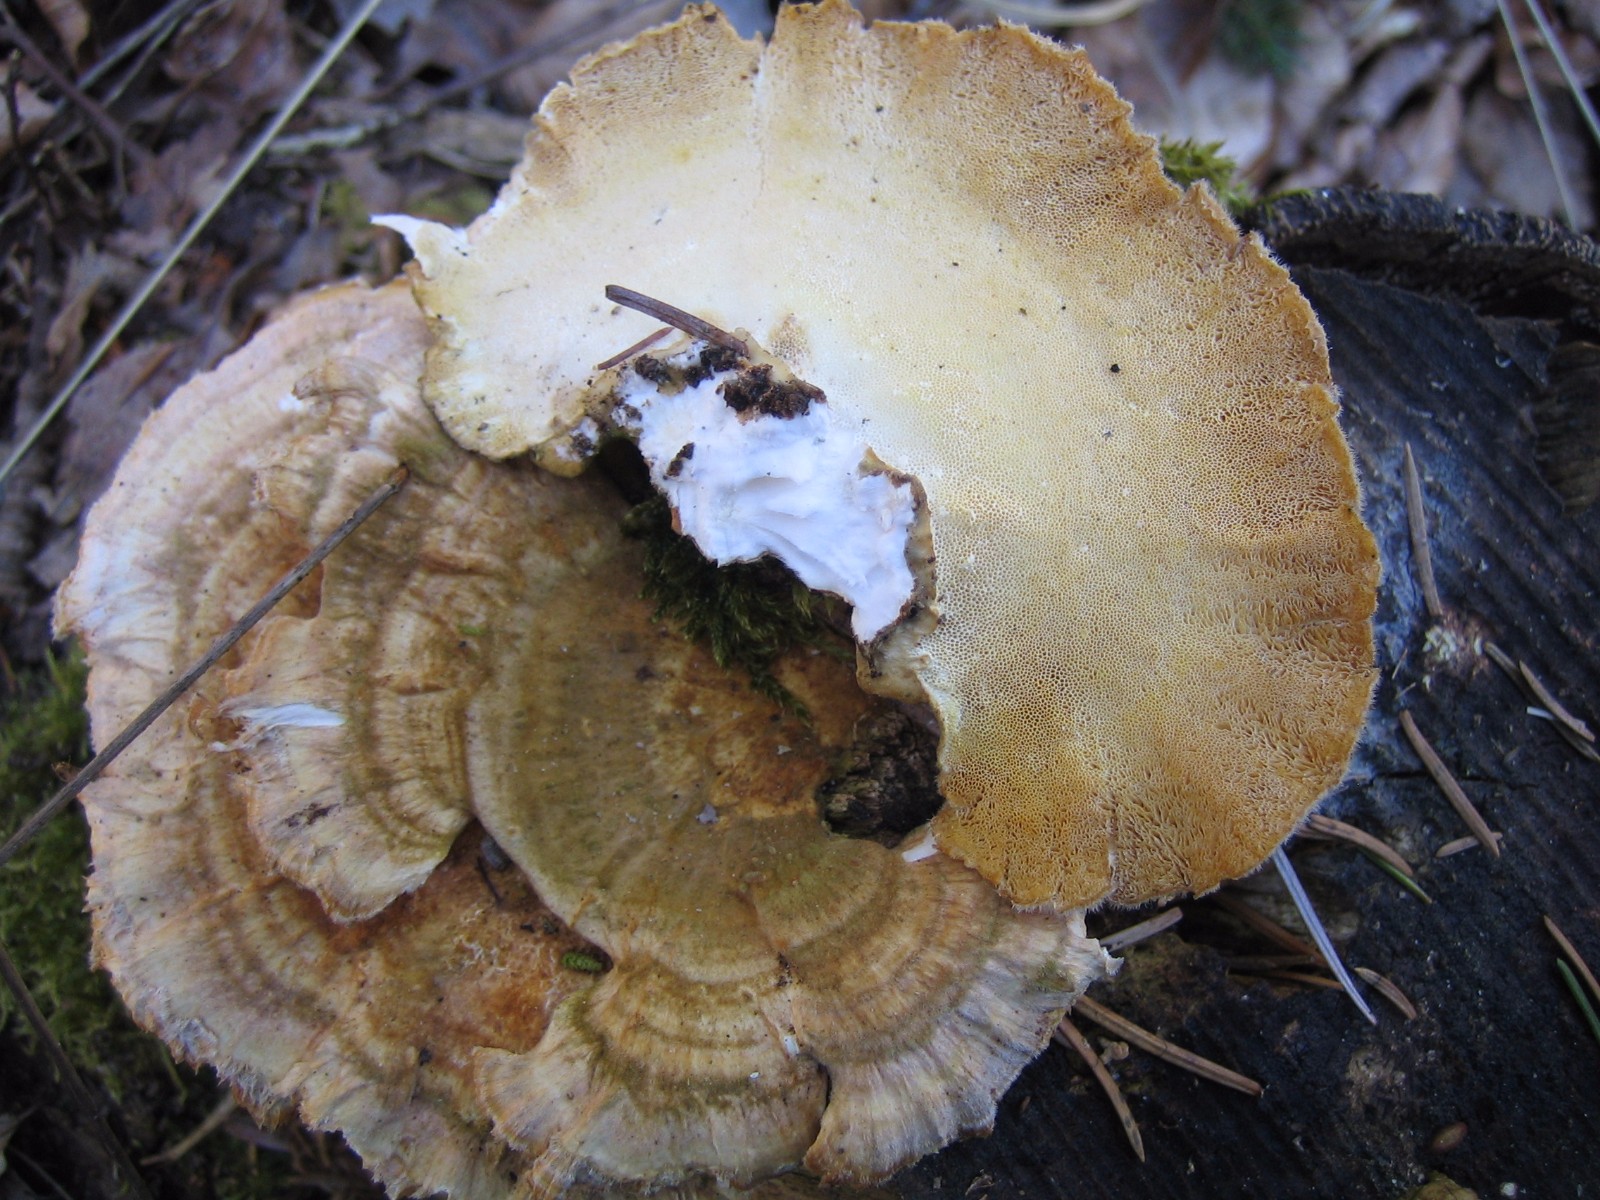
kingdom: Fungi
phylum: Basidiomycota
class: Agaricomycetes
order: Polyporales
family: Polyporaceae
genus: Trametes
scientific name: Trametes
